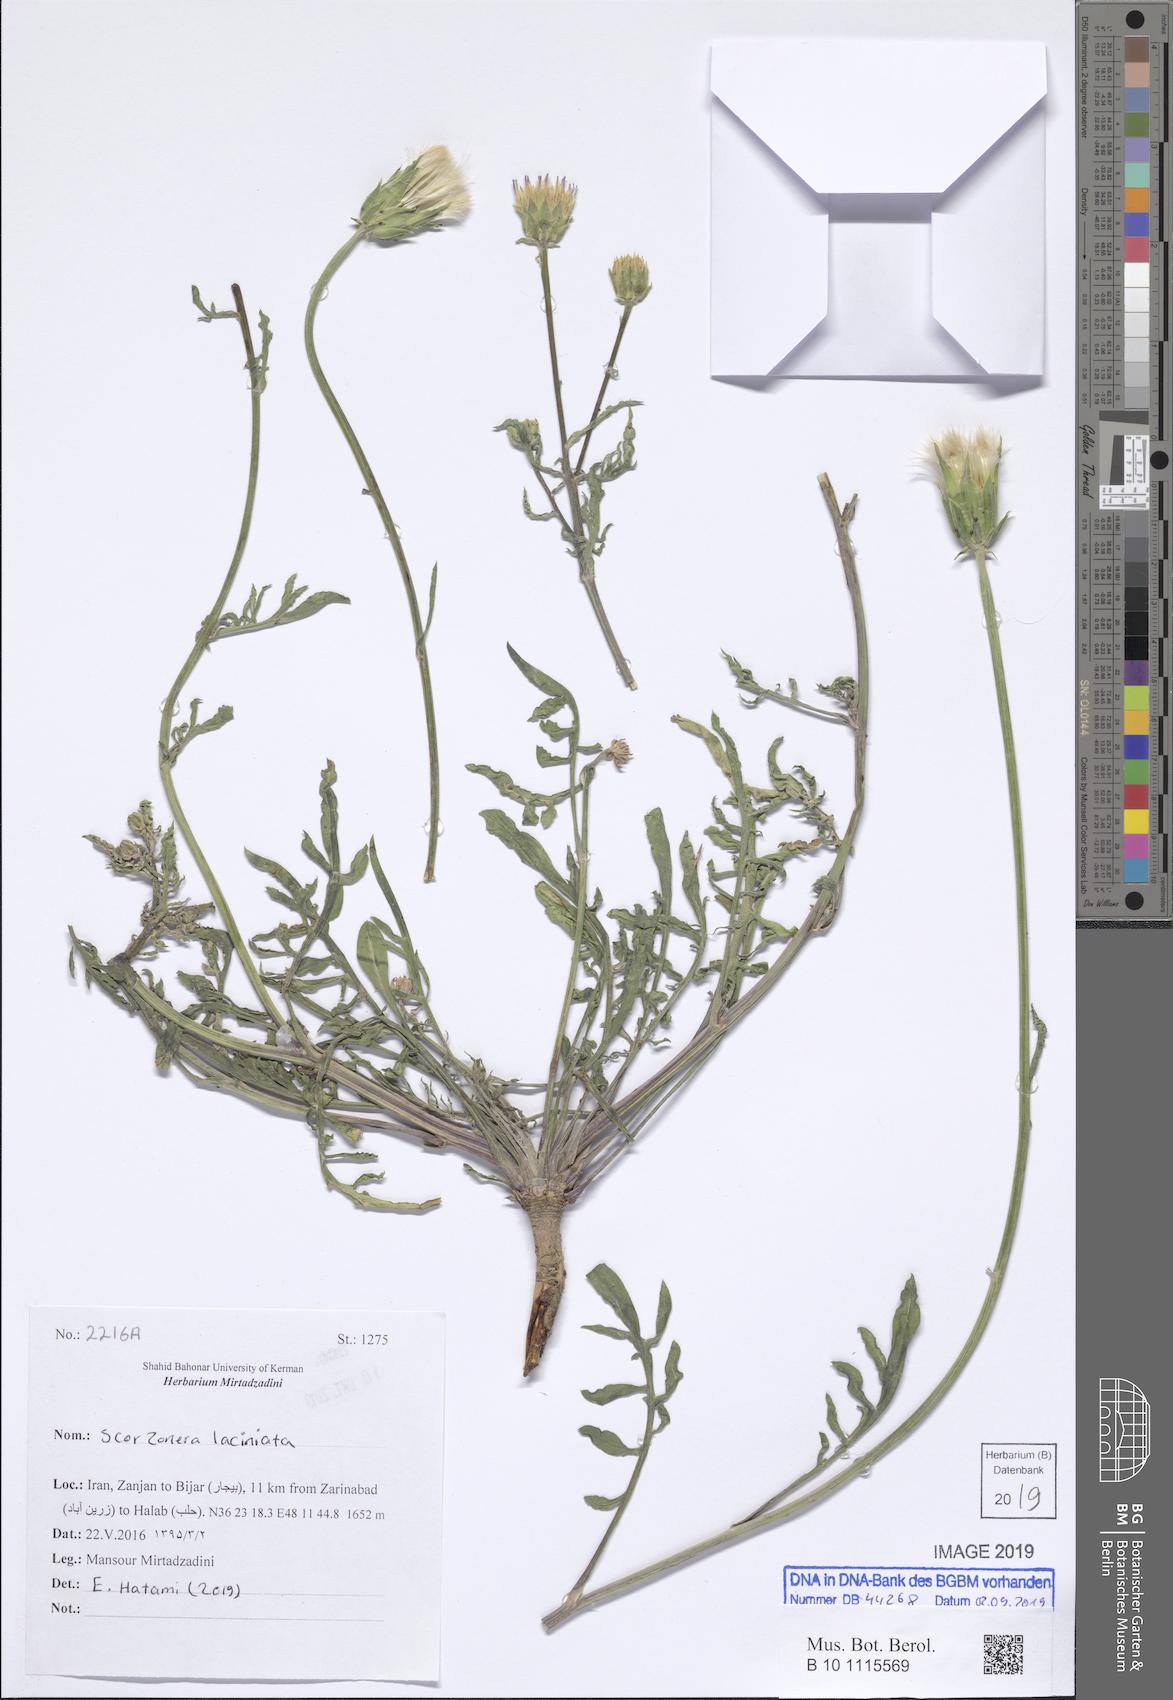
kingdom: Plantae
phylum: Tracheophyta
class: Magnoliopsida
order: Asterales
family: Asteraceae
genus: Scorzonera
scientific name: Scorzonera laciniata
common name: Cutleaf vipergrass
